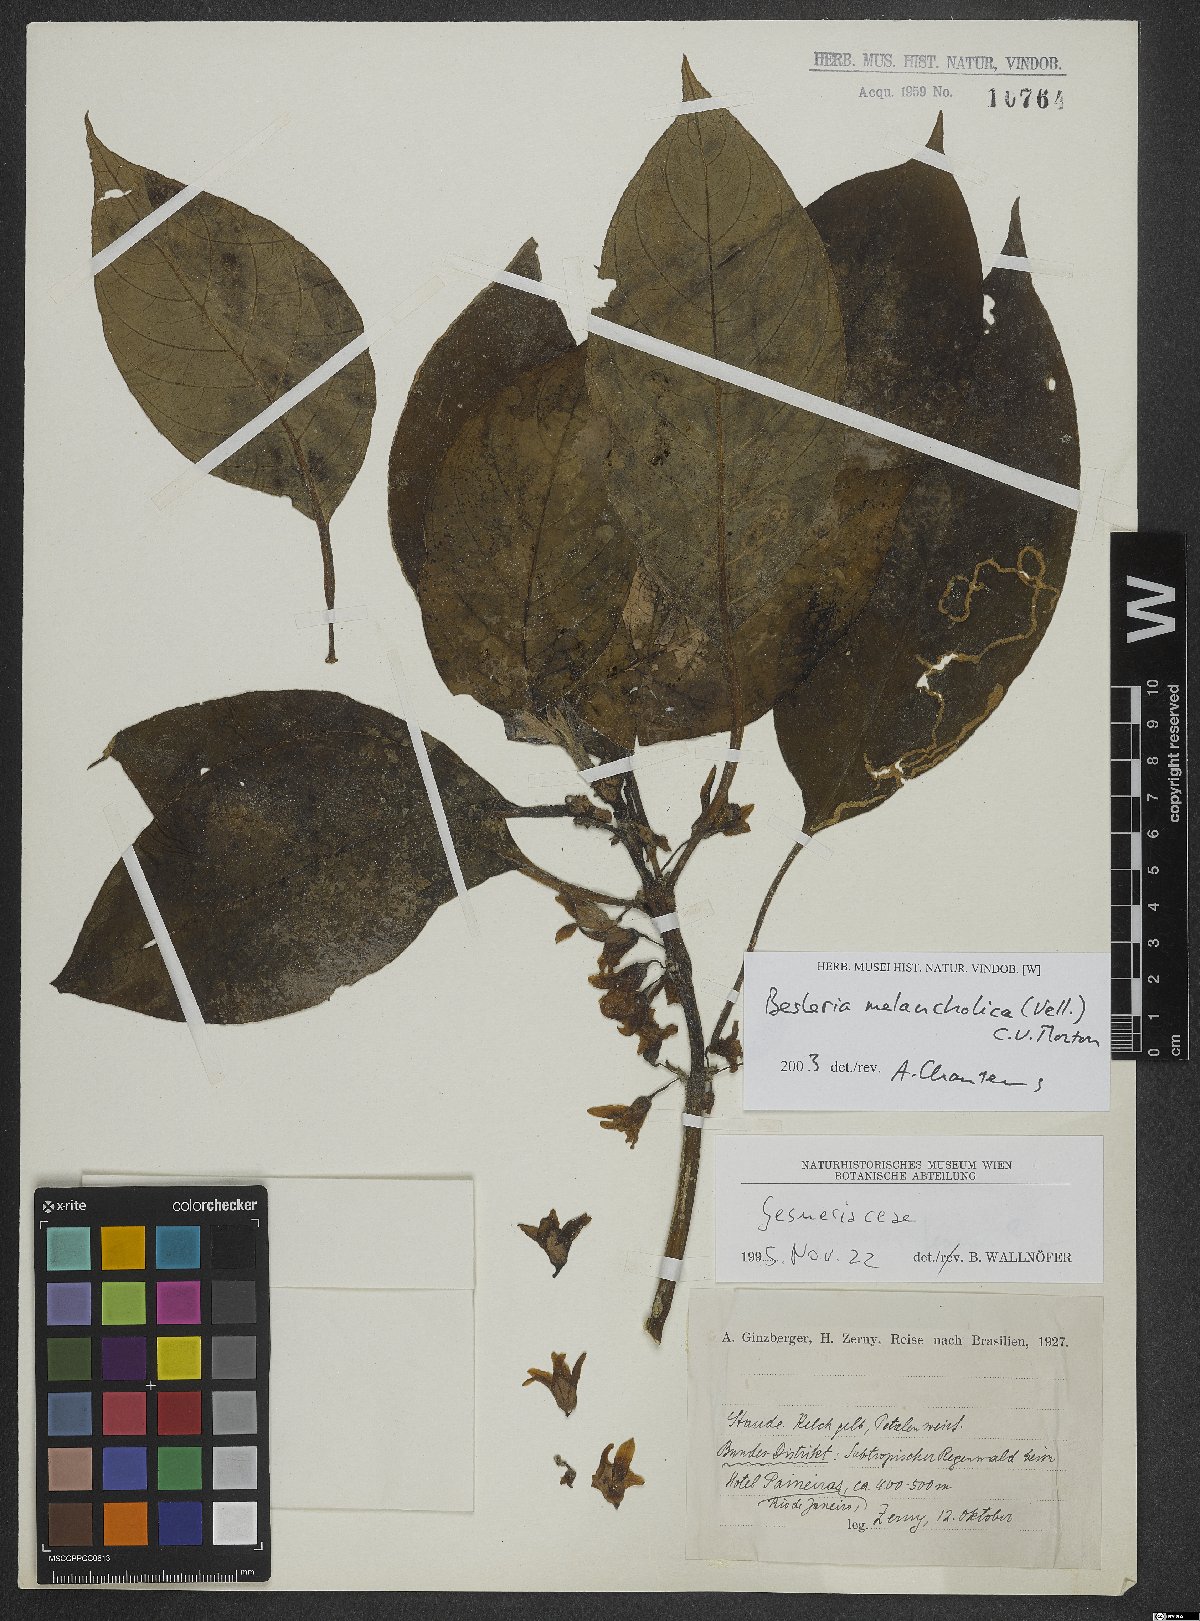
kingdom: Plantae
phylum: Tracheophyta
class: Magnoliopsida
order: Lamiales
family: Gesneriaceae
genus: Besleria
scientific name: Besleria melancholica
